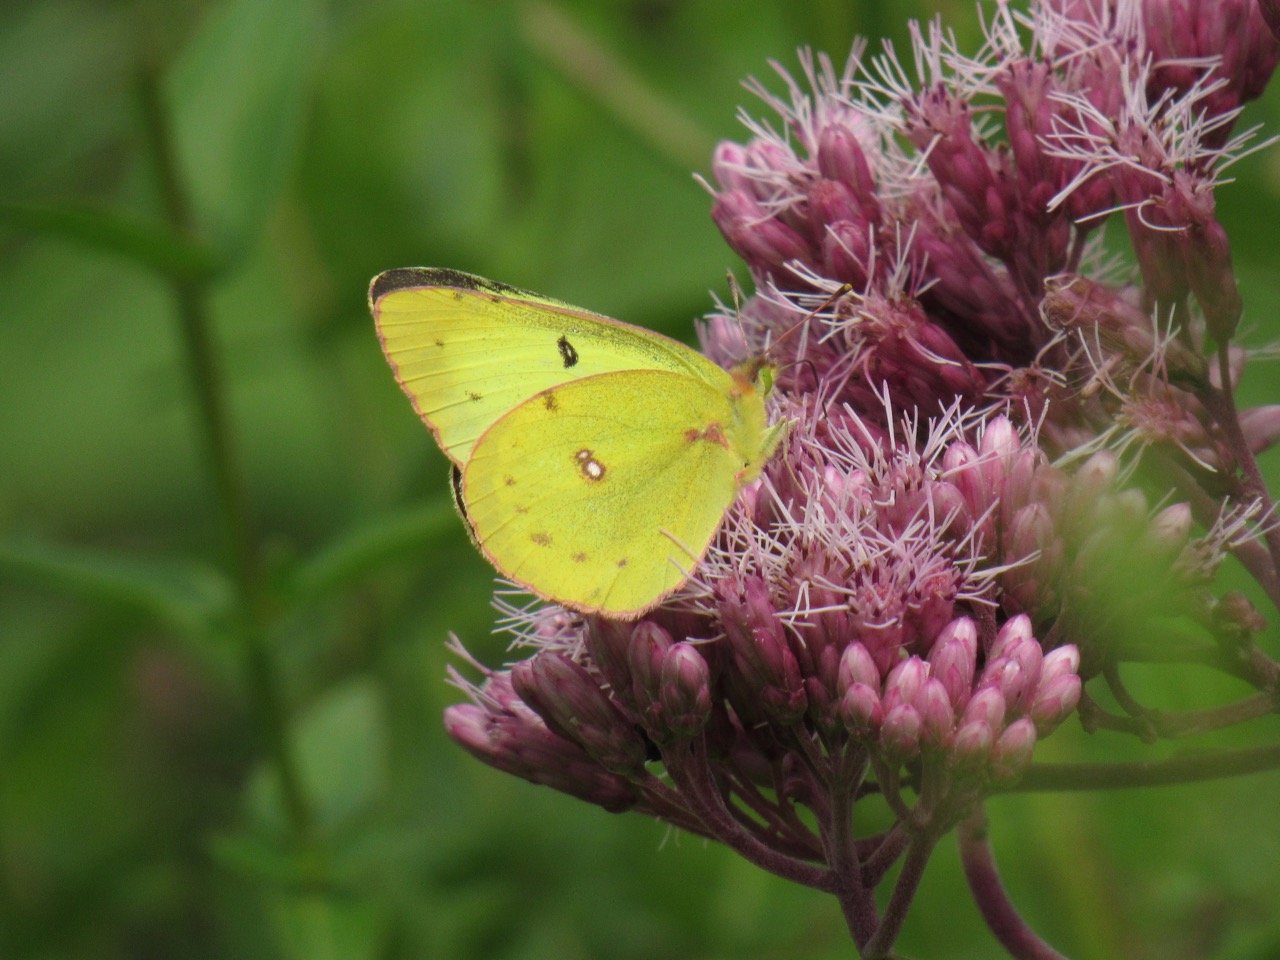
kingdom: Animalia
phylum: Arthropoda
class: Insecta
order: Lepidoptera
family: Pieridae
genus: Colias
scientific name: Colias philodice
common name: Clouded Sulphur
